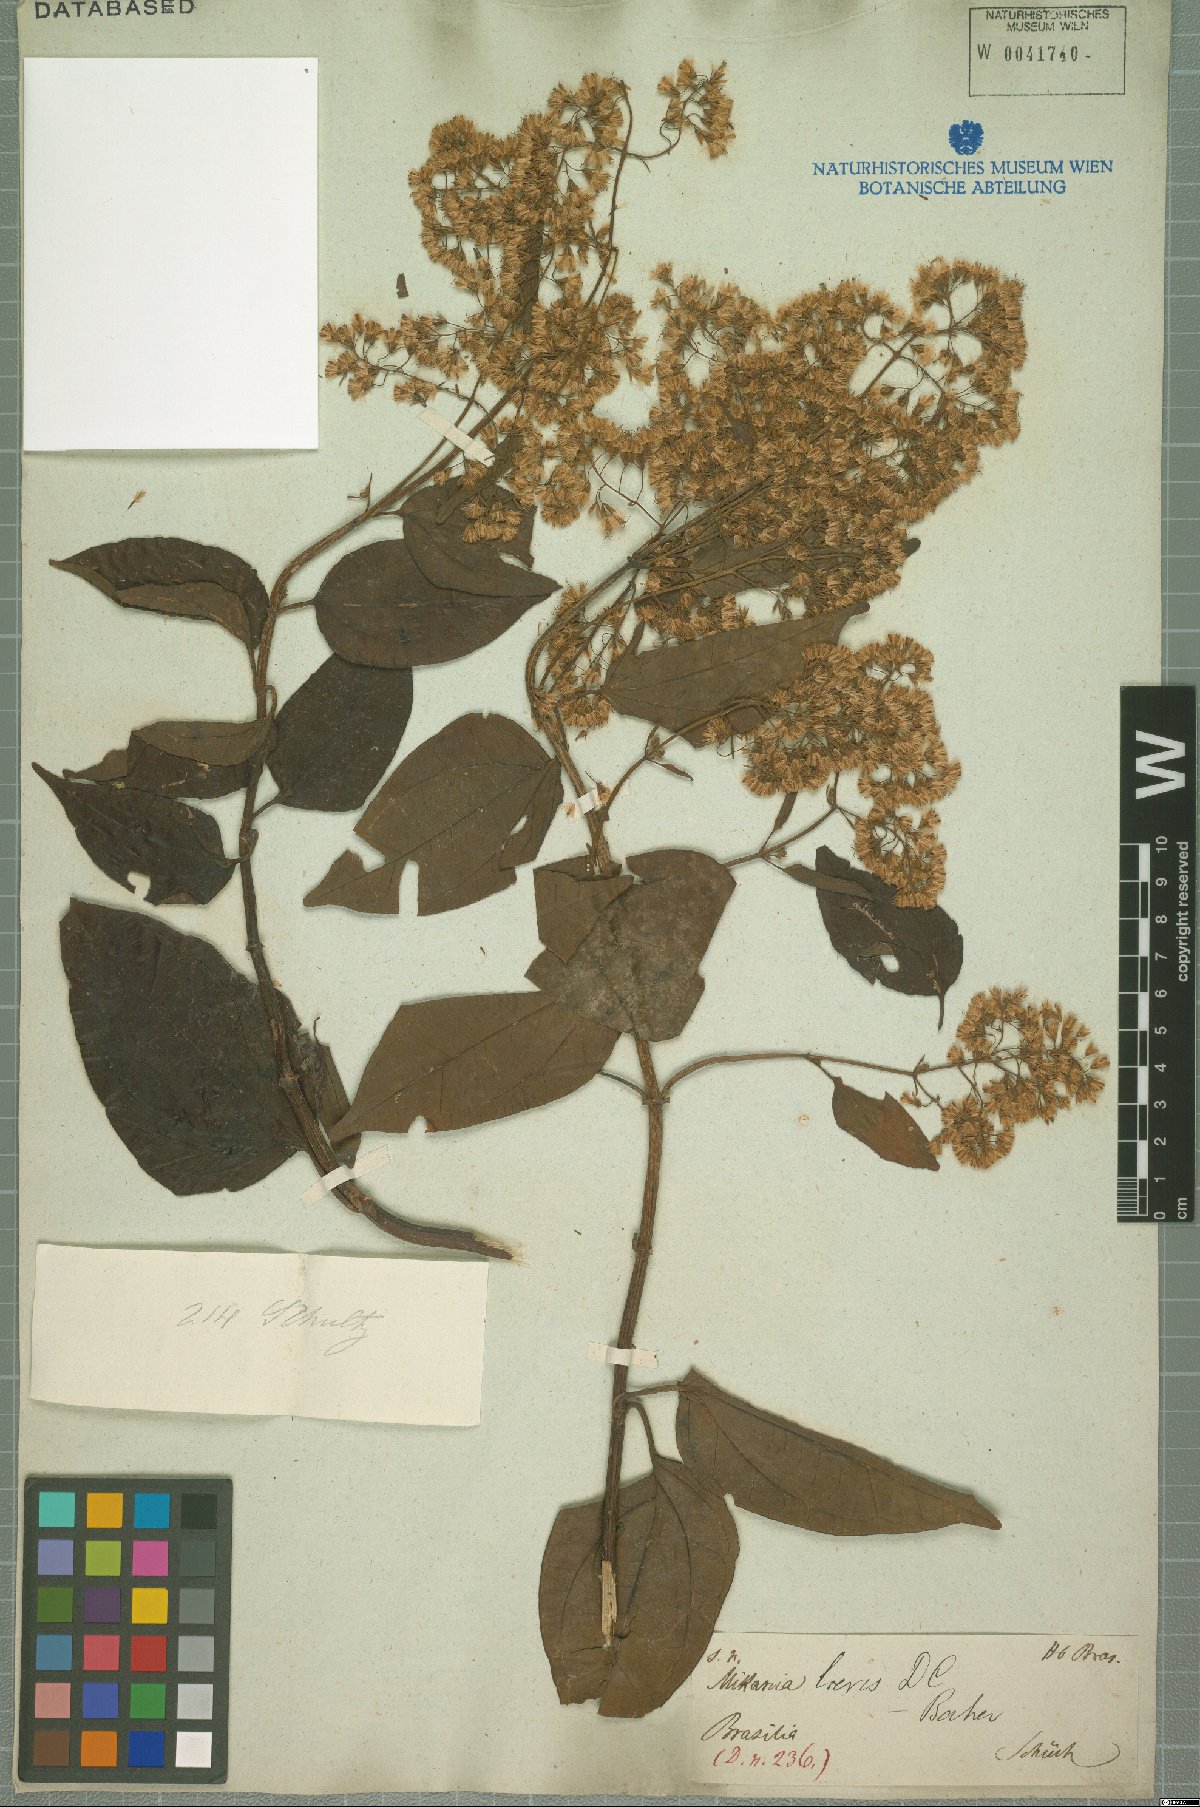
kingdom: Plantae
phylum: Tracheophyta
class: Magnoliopsida
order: Asterales
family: Asteraceae
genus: Mikania
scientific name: Mikania trinervis
